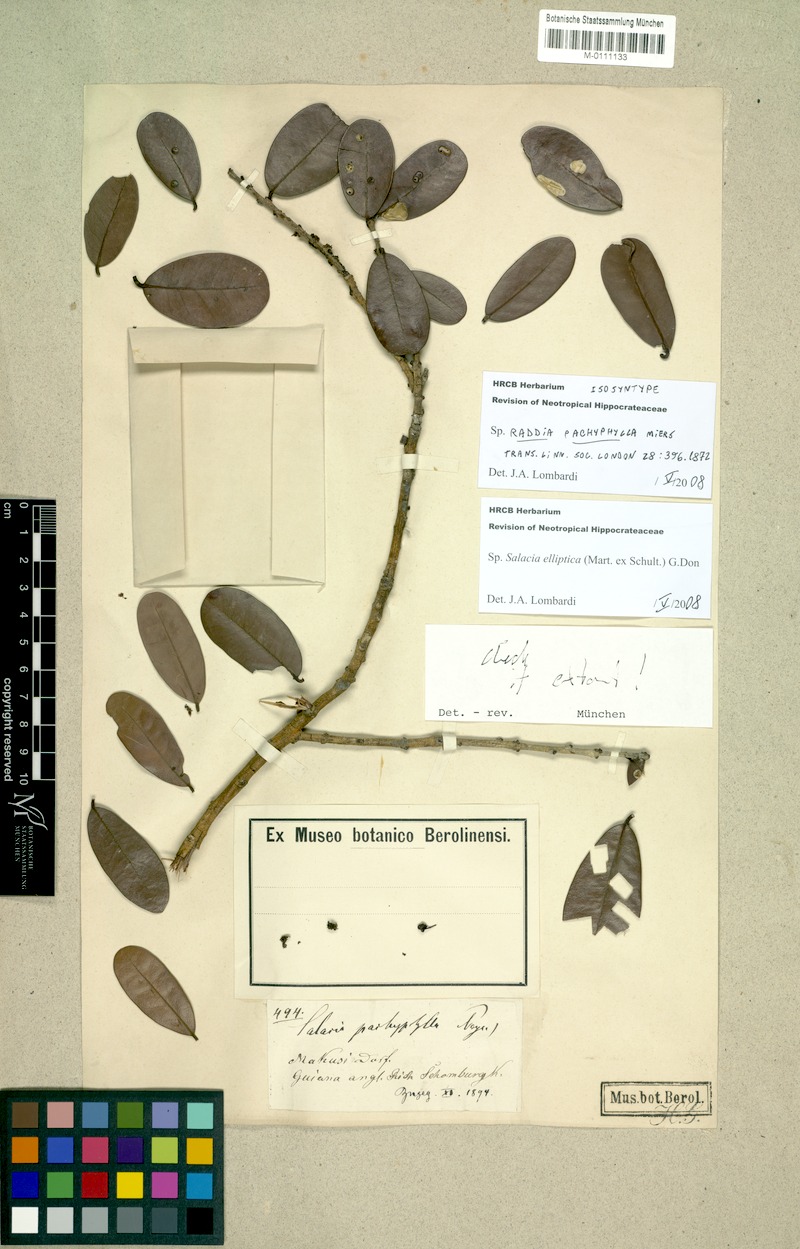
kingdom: Plantae
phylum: Tracheophyta
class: Magnoliopsida
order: Celastrales
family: Celastraceae
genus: Salacia
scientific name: Salacia elliptica
